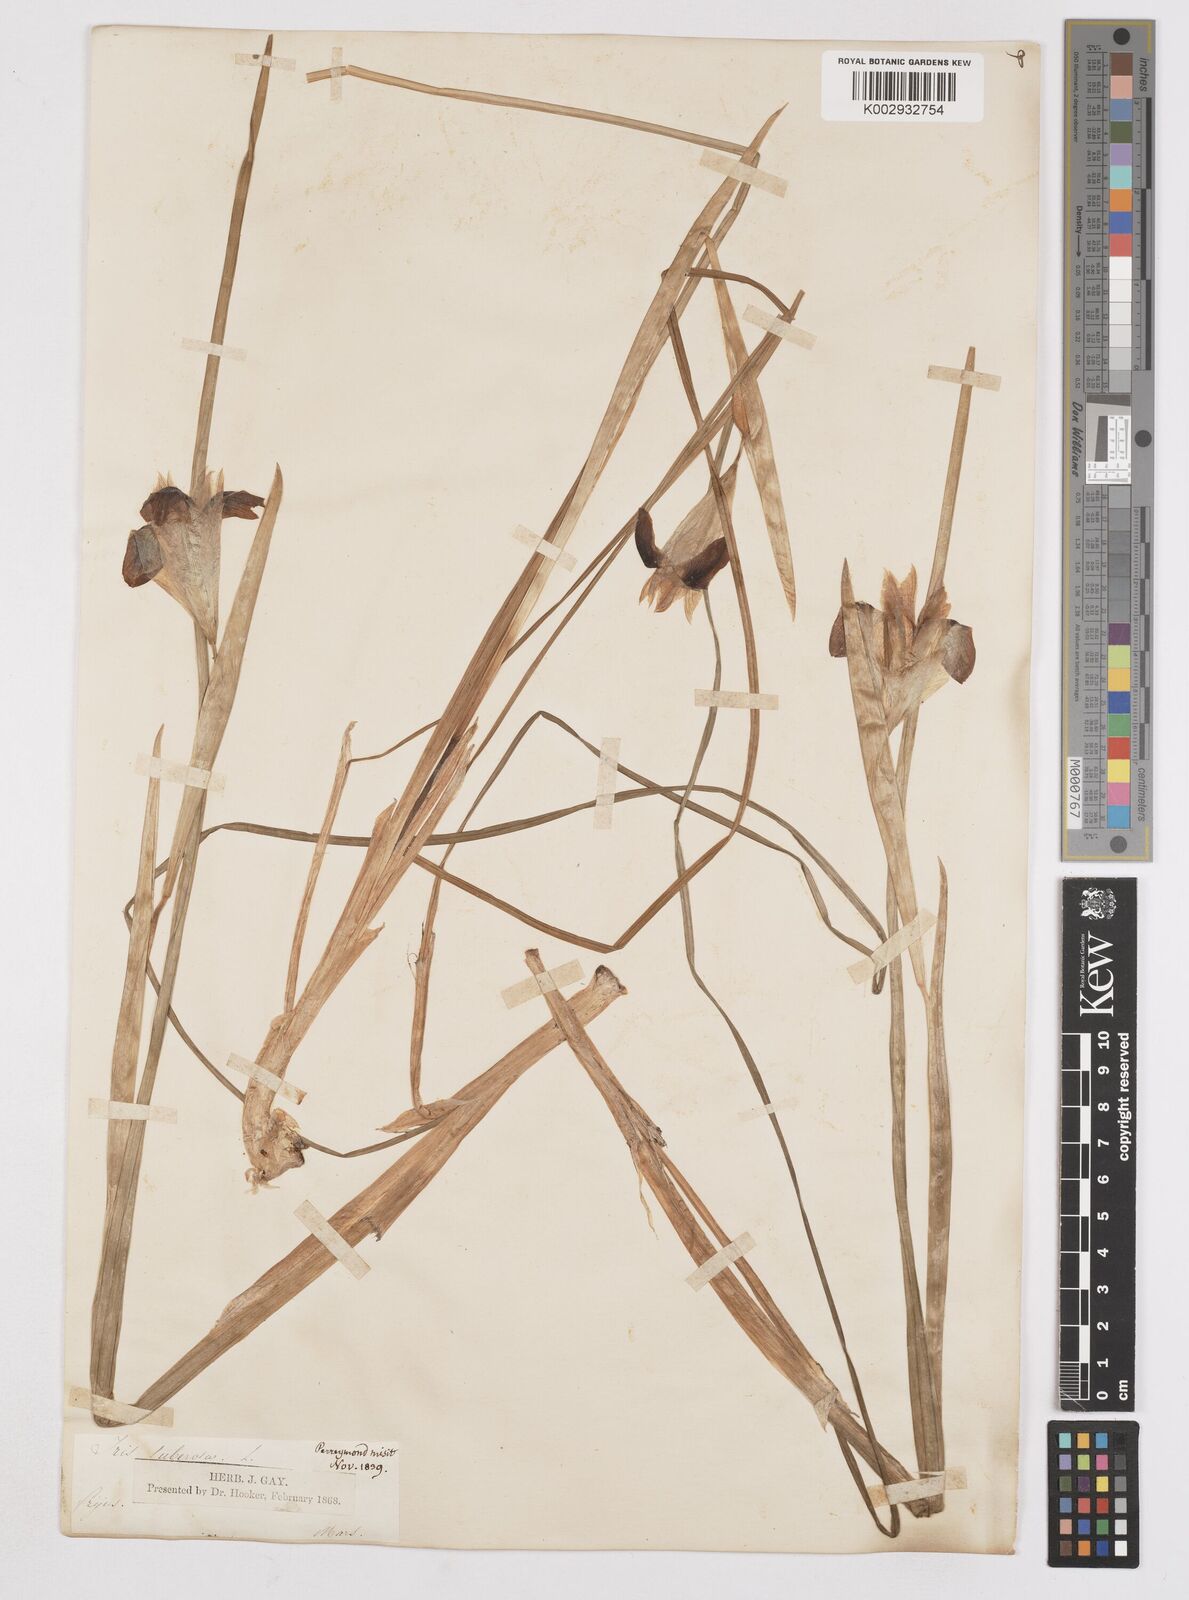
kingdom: Plantae
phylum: Tracheophyta
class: Liliopsida
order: Asparagales
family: Iridaceae
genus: Iris
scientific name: Iris tuberosa
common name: Snake's-head iris
